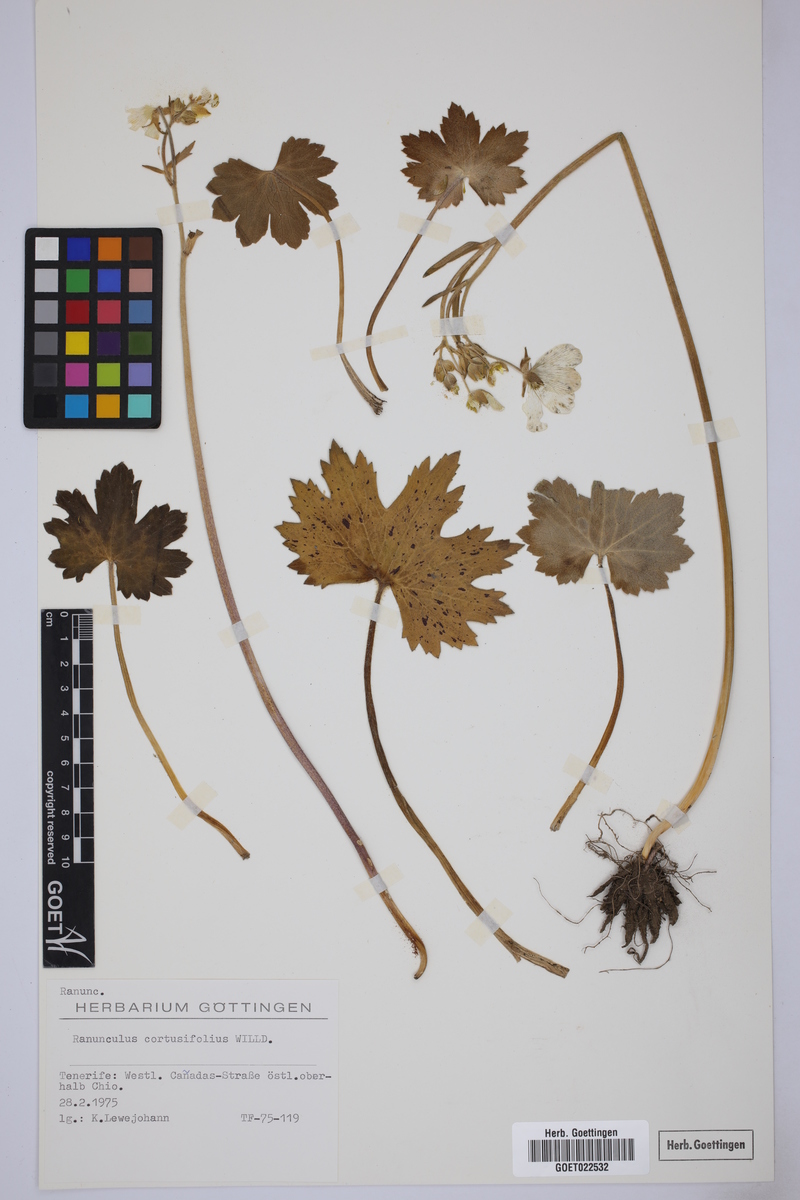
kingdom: Plantae
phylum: Tracheophyta
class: Magnoliopsida
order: Ranunculales
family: Ranunculaceae
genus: Ranunculus
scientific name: Ranunculus cortusifolius
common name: Azores buttercup
